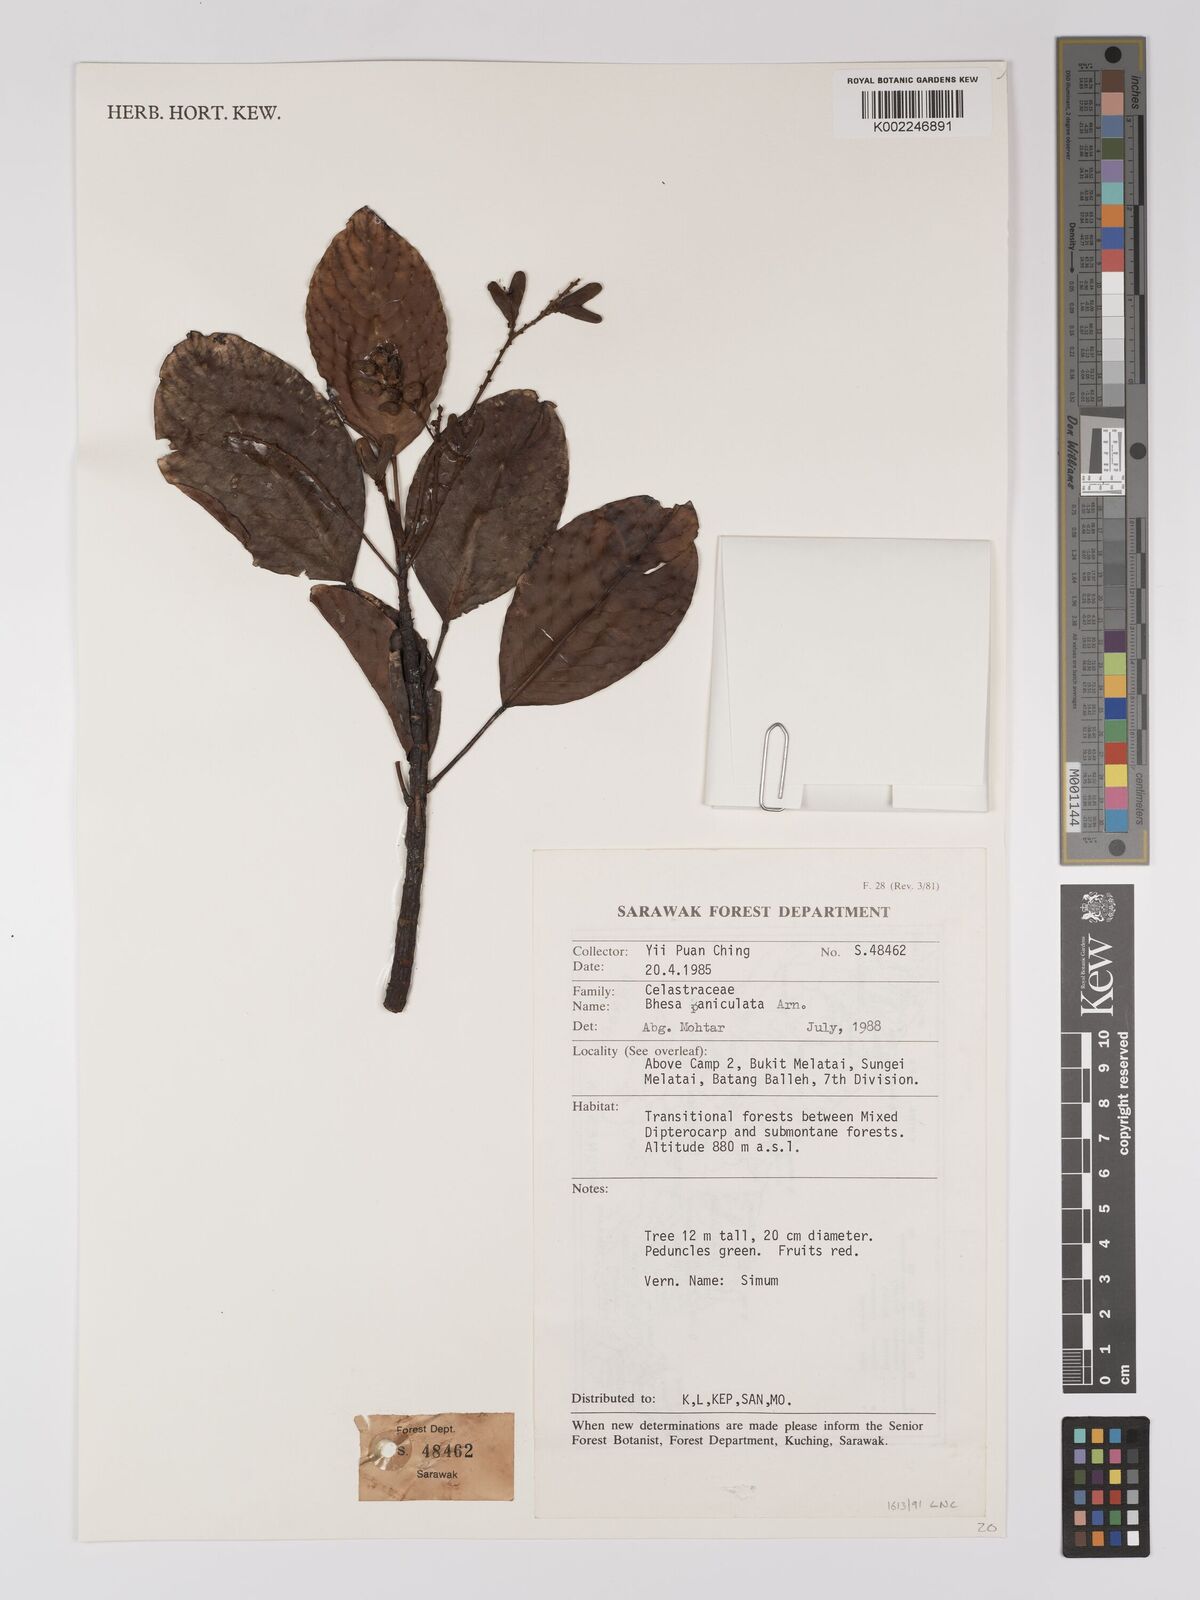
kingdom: Plantae
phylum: Tracheophyta
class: Magnoliopsida
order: Malpighiales
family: Centroplacaceae
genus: Bhesa
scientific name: Bhesa paniculata
